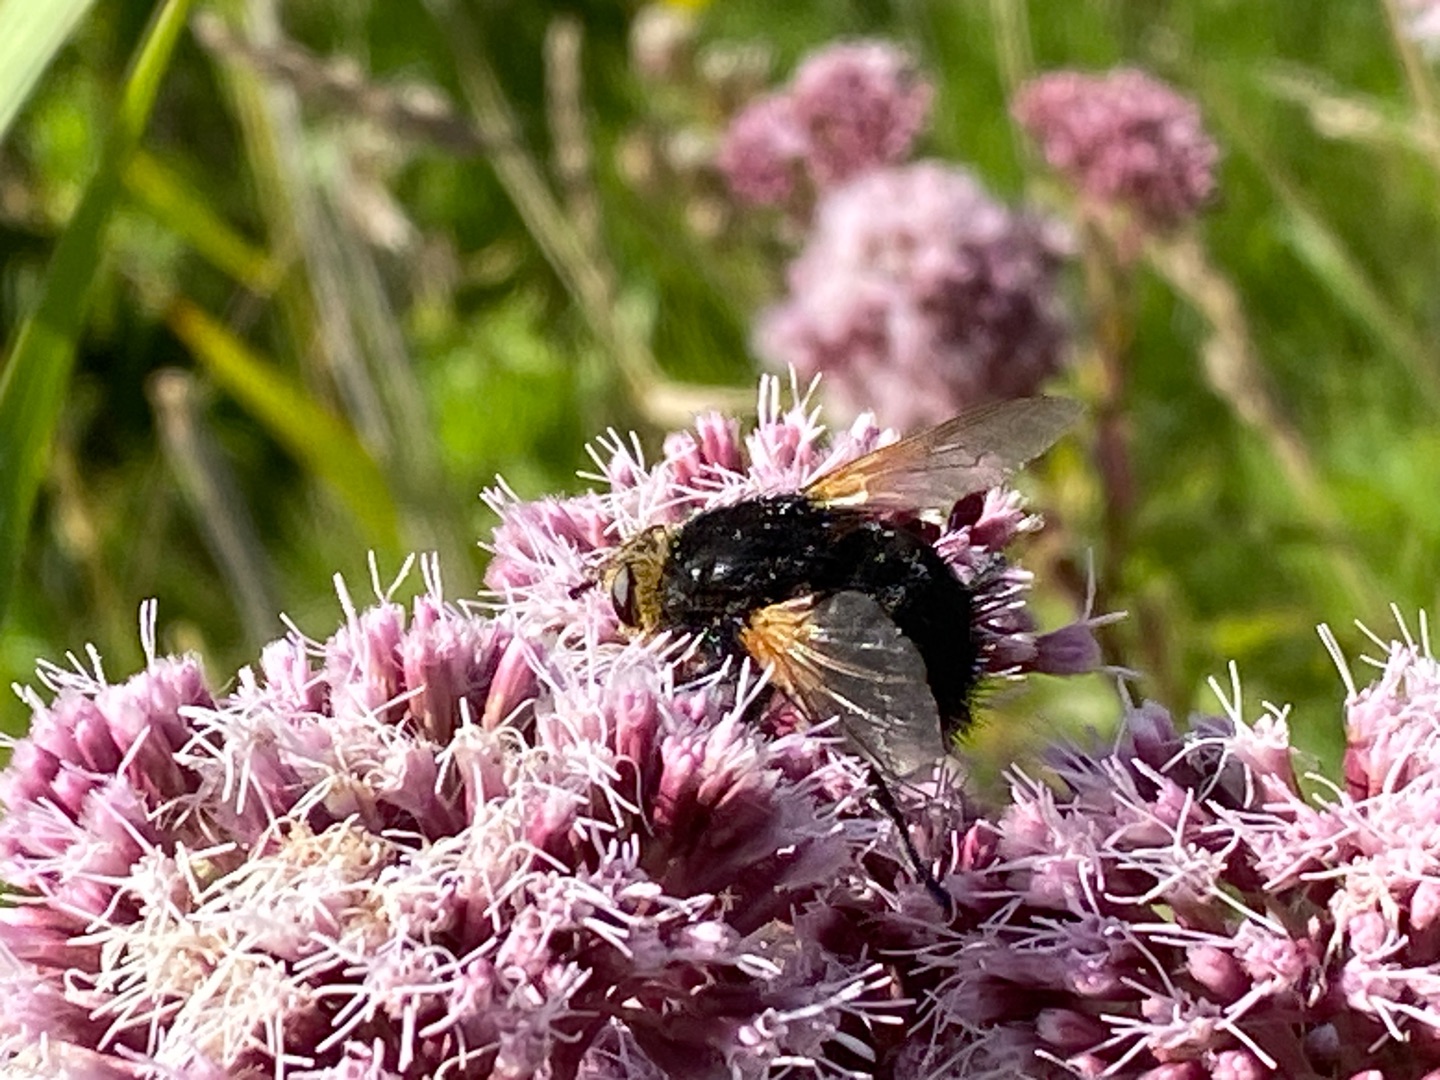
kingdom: Animalia
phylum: Arthropoda
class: Insecta
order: Diptera
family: Tachinidae
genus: Tachina
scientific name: Tachina grossa
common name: Kæmpefluen Harald
